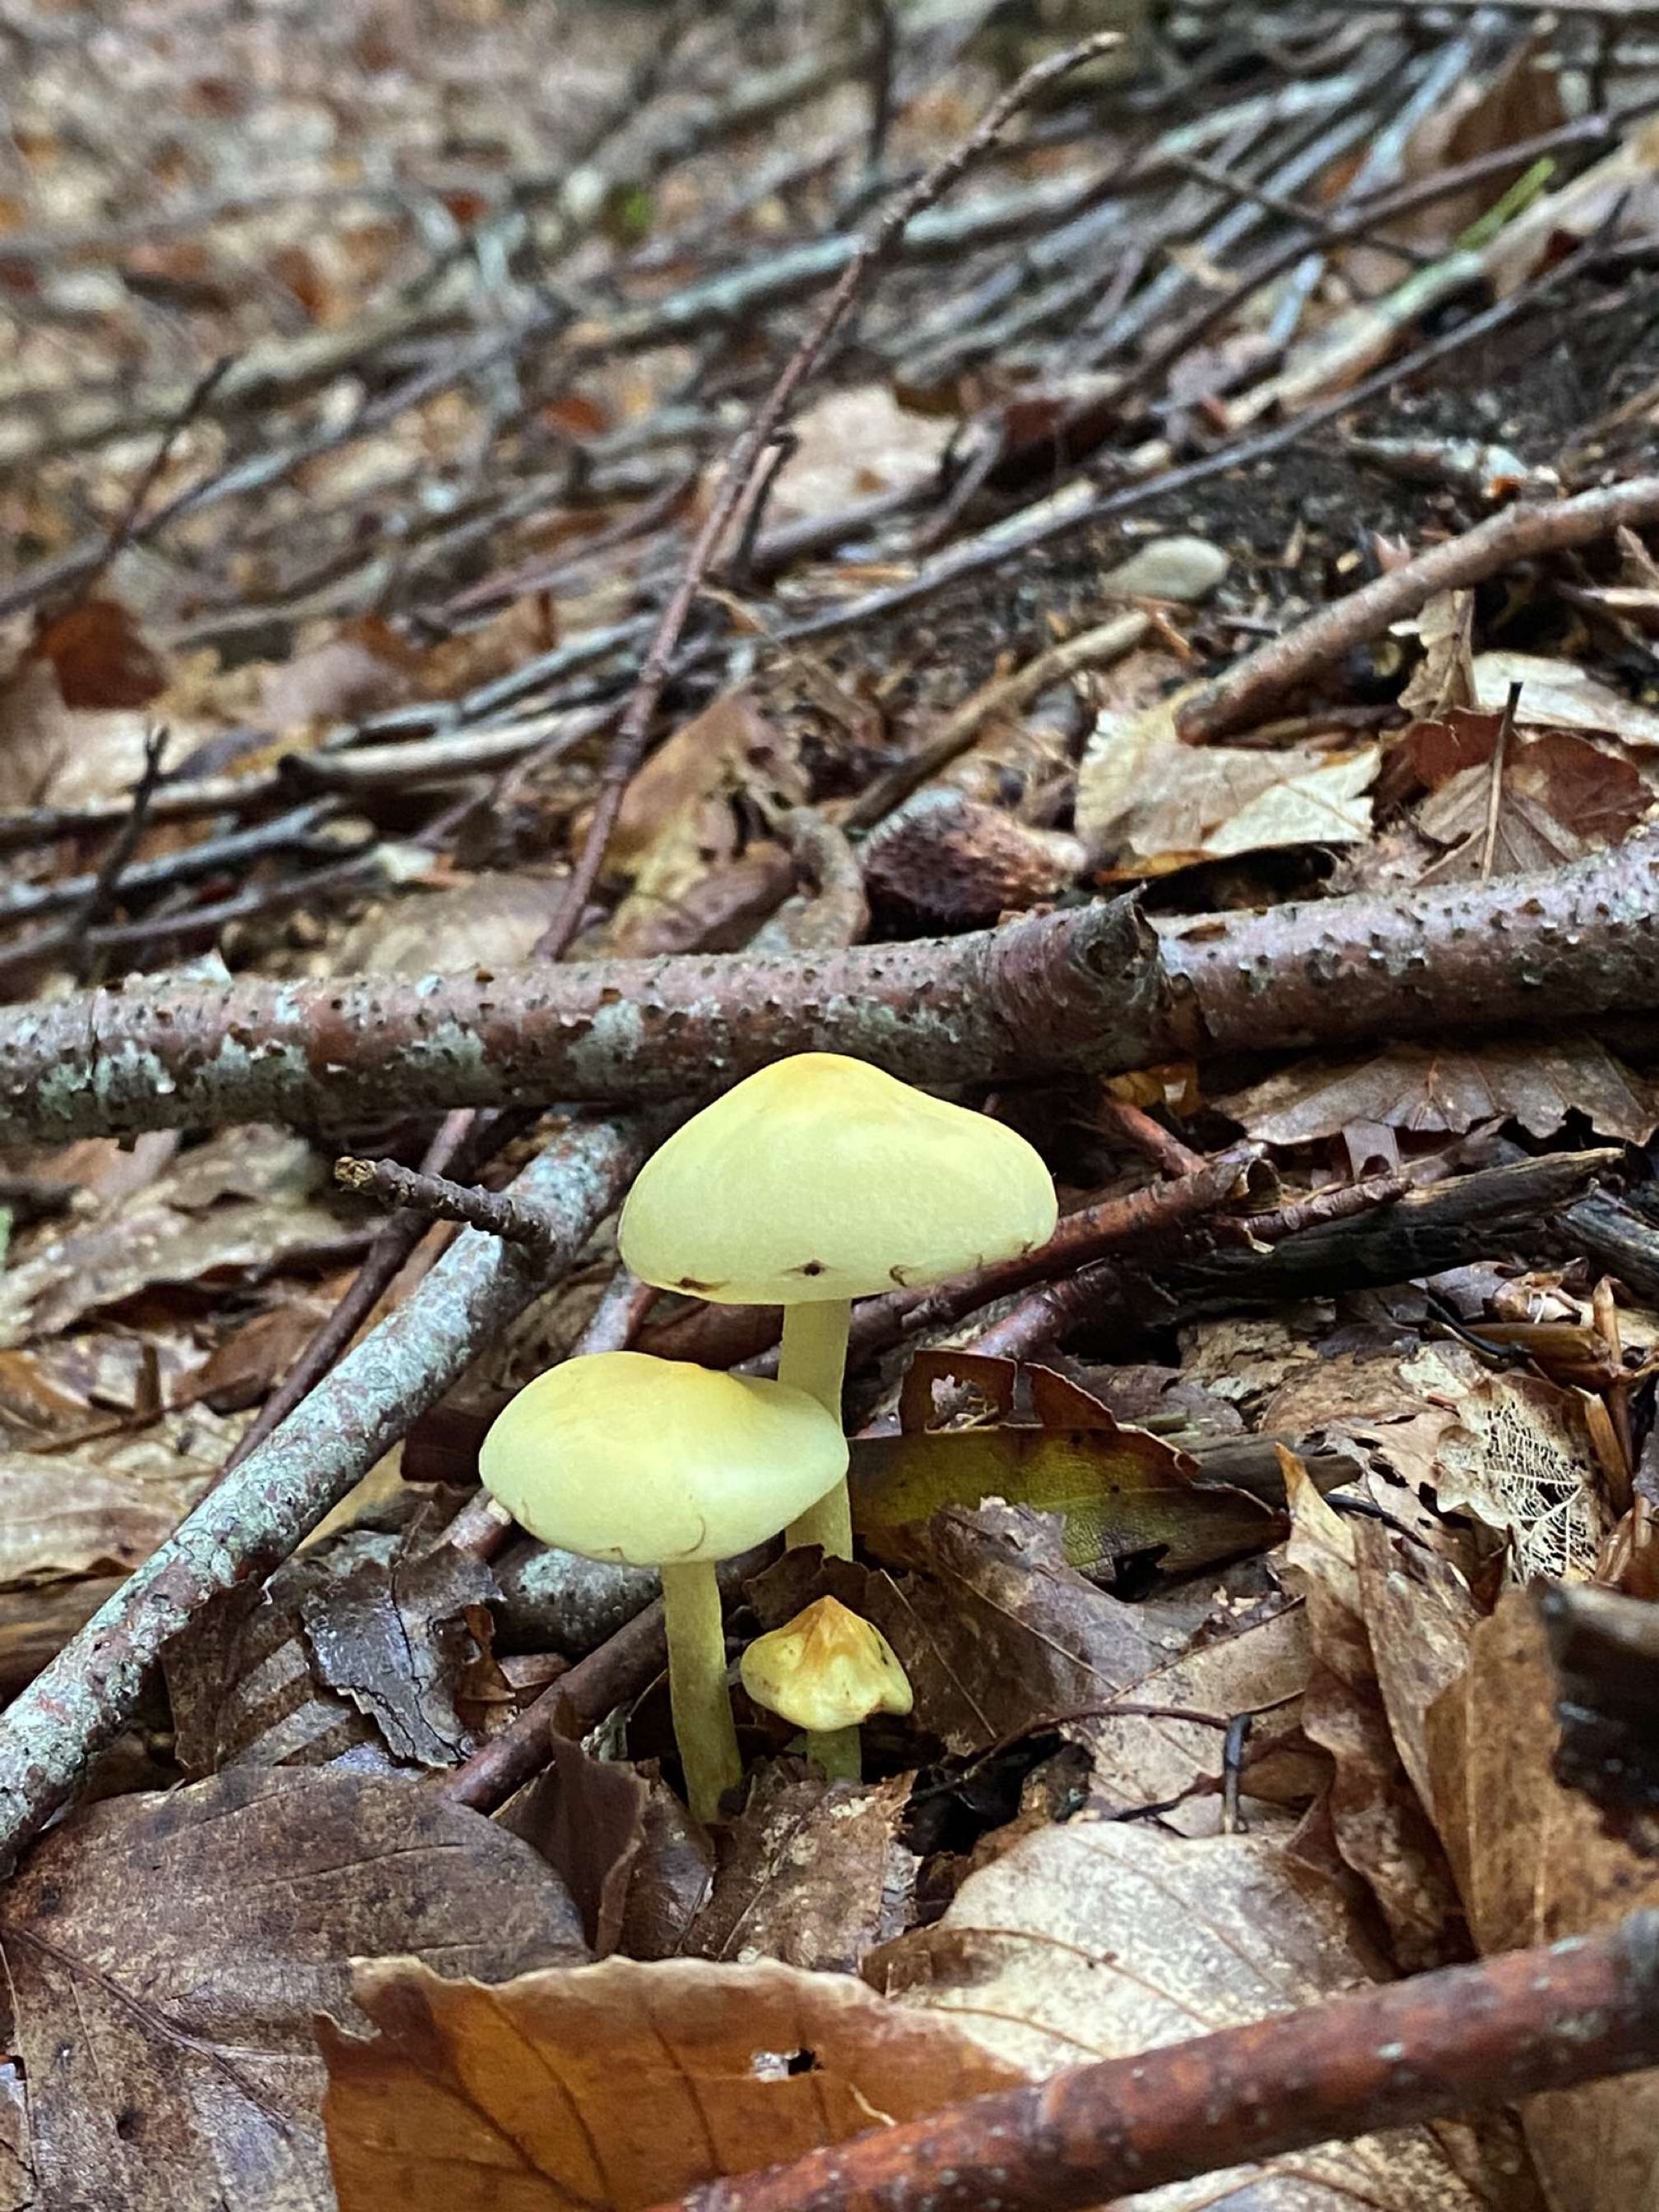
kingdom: Fungi
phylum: Basidiomycota
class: Agaricomycetes
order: Agaricales
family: Strophariaceae
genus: Hypholoma
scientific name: Hypholoma fasciculare
